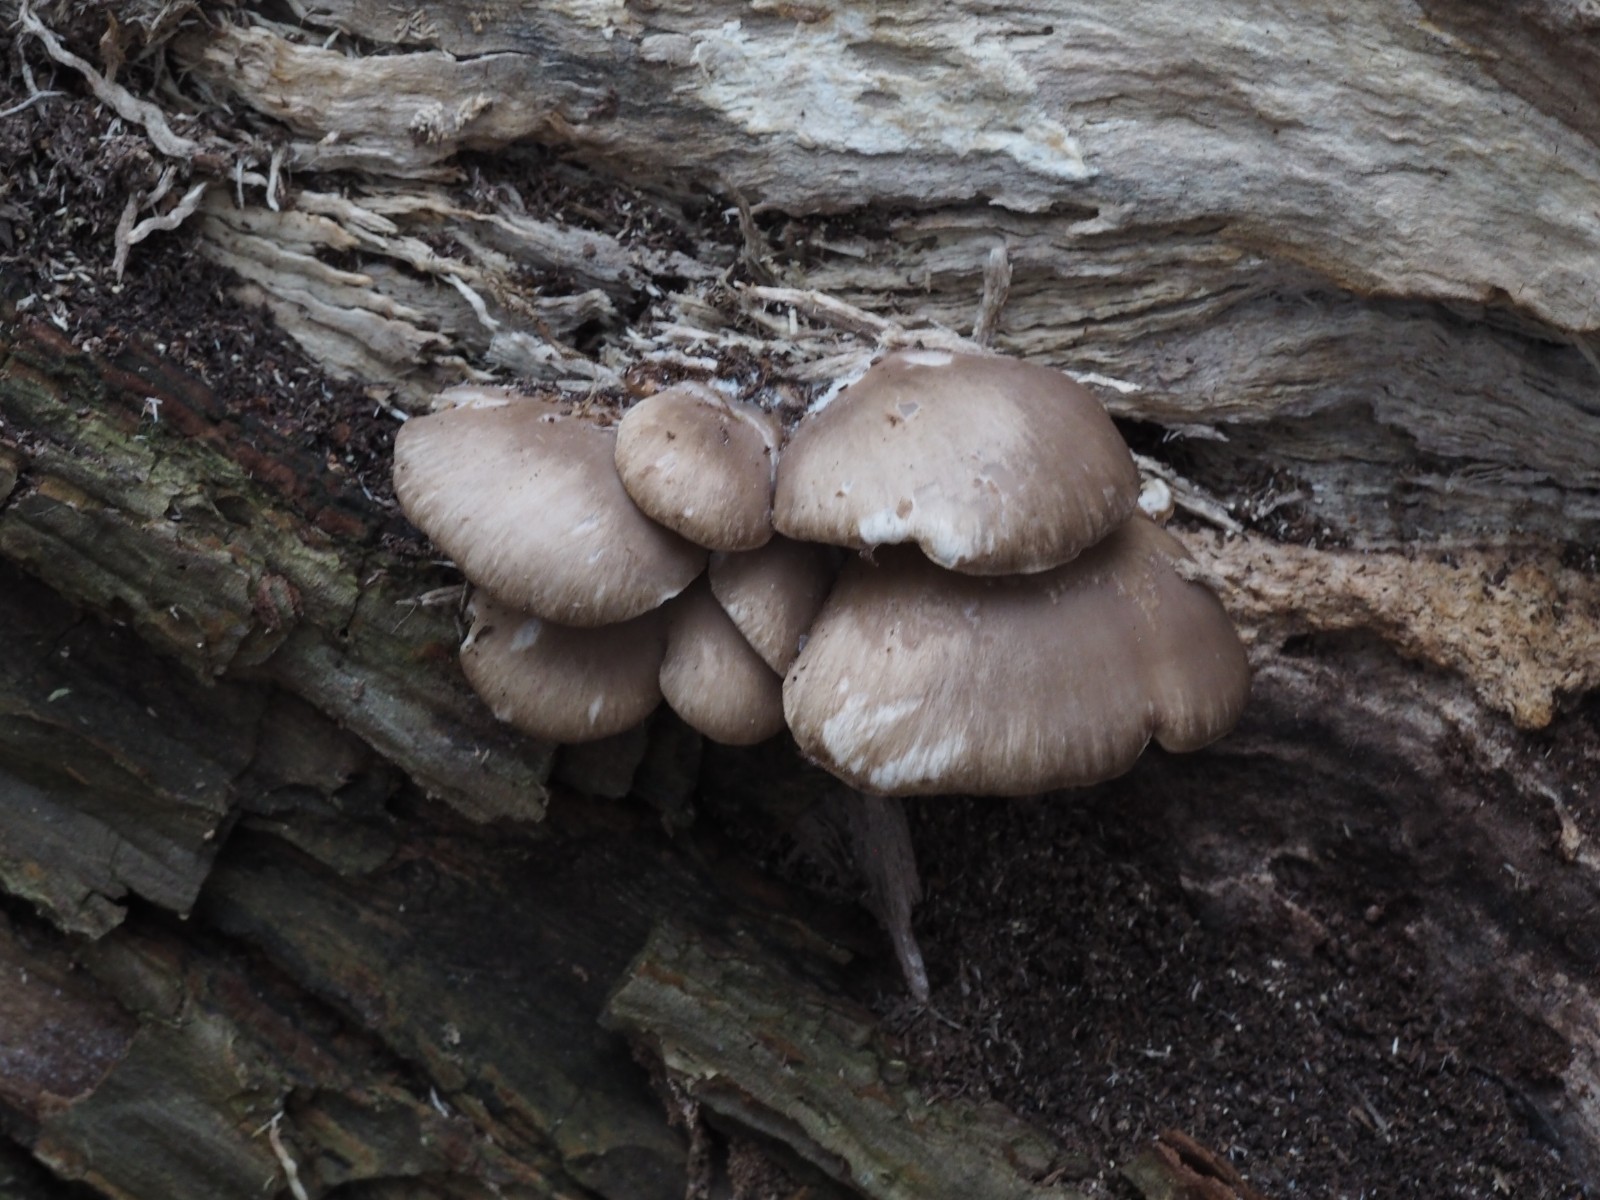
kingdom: Fungi
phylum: Basidiomycota
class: Agaricomycetes
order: Agaricales
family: Pleurotaceae
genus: Pleurotus
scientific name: Pleurotus ostreatus
